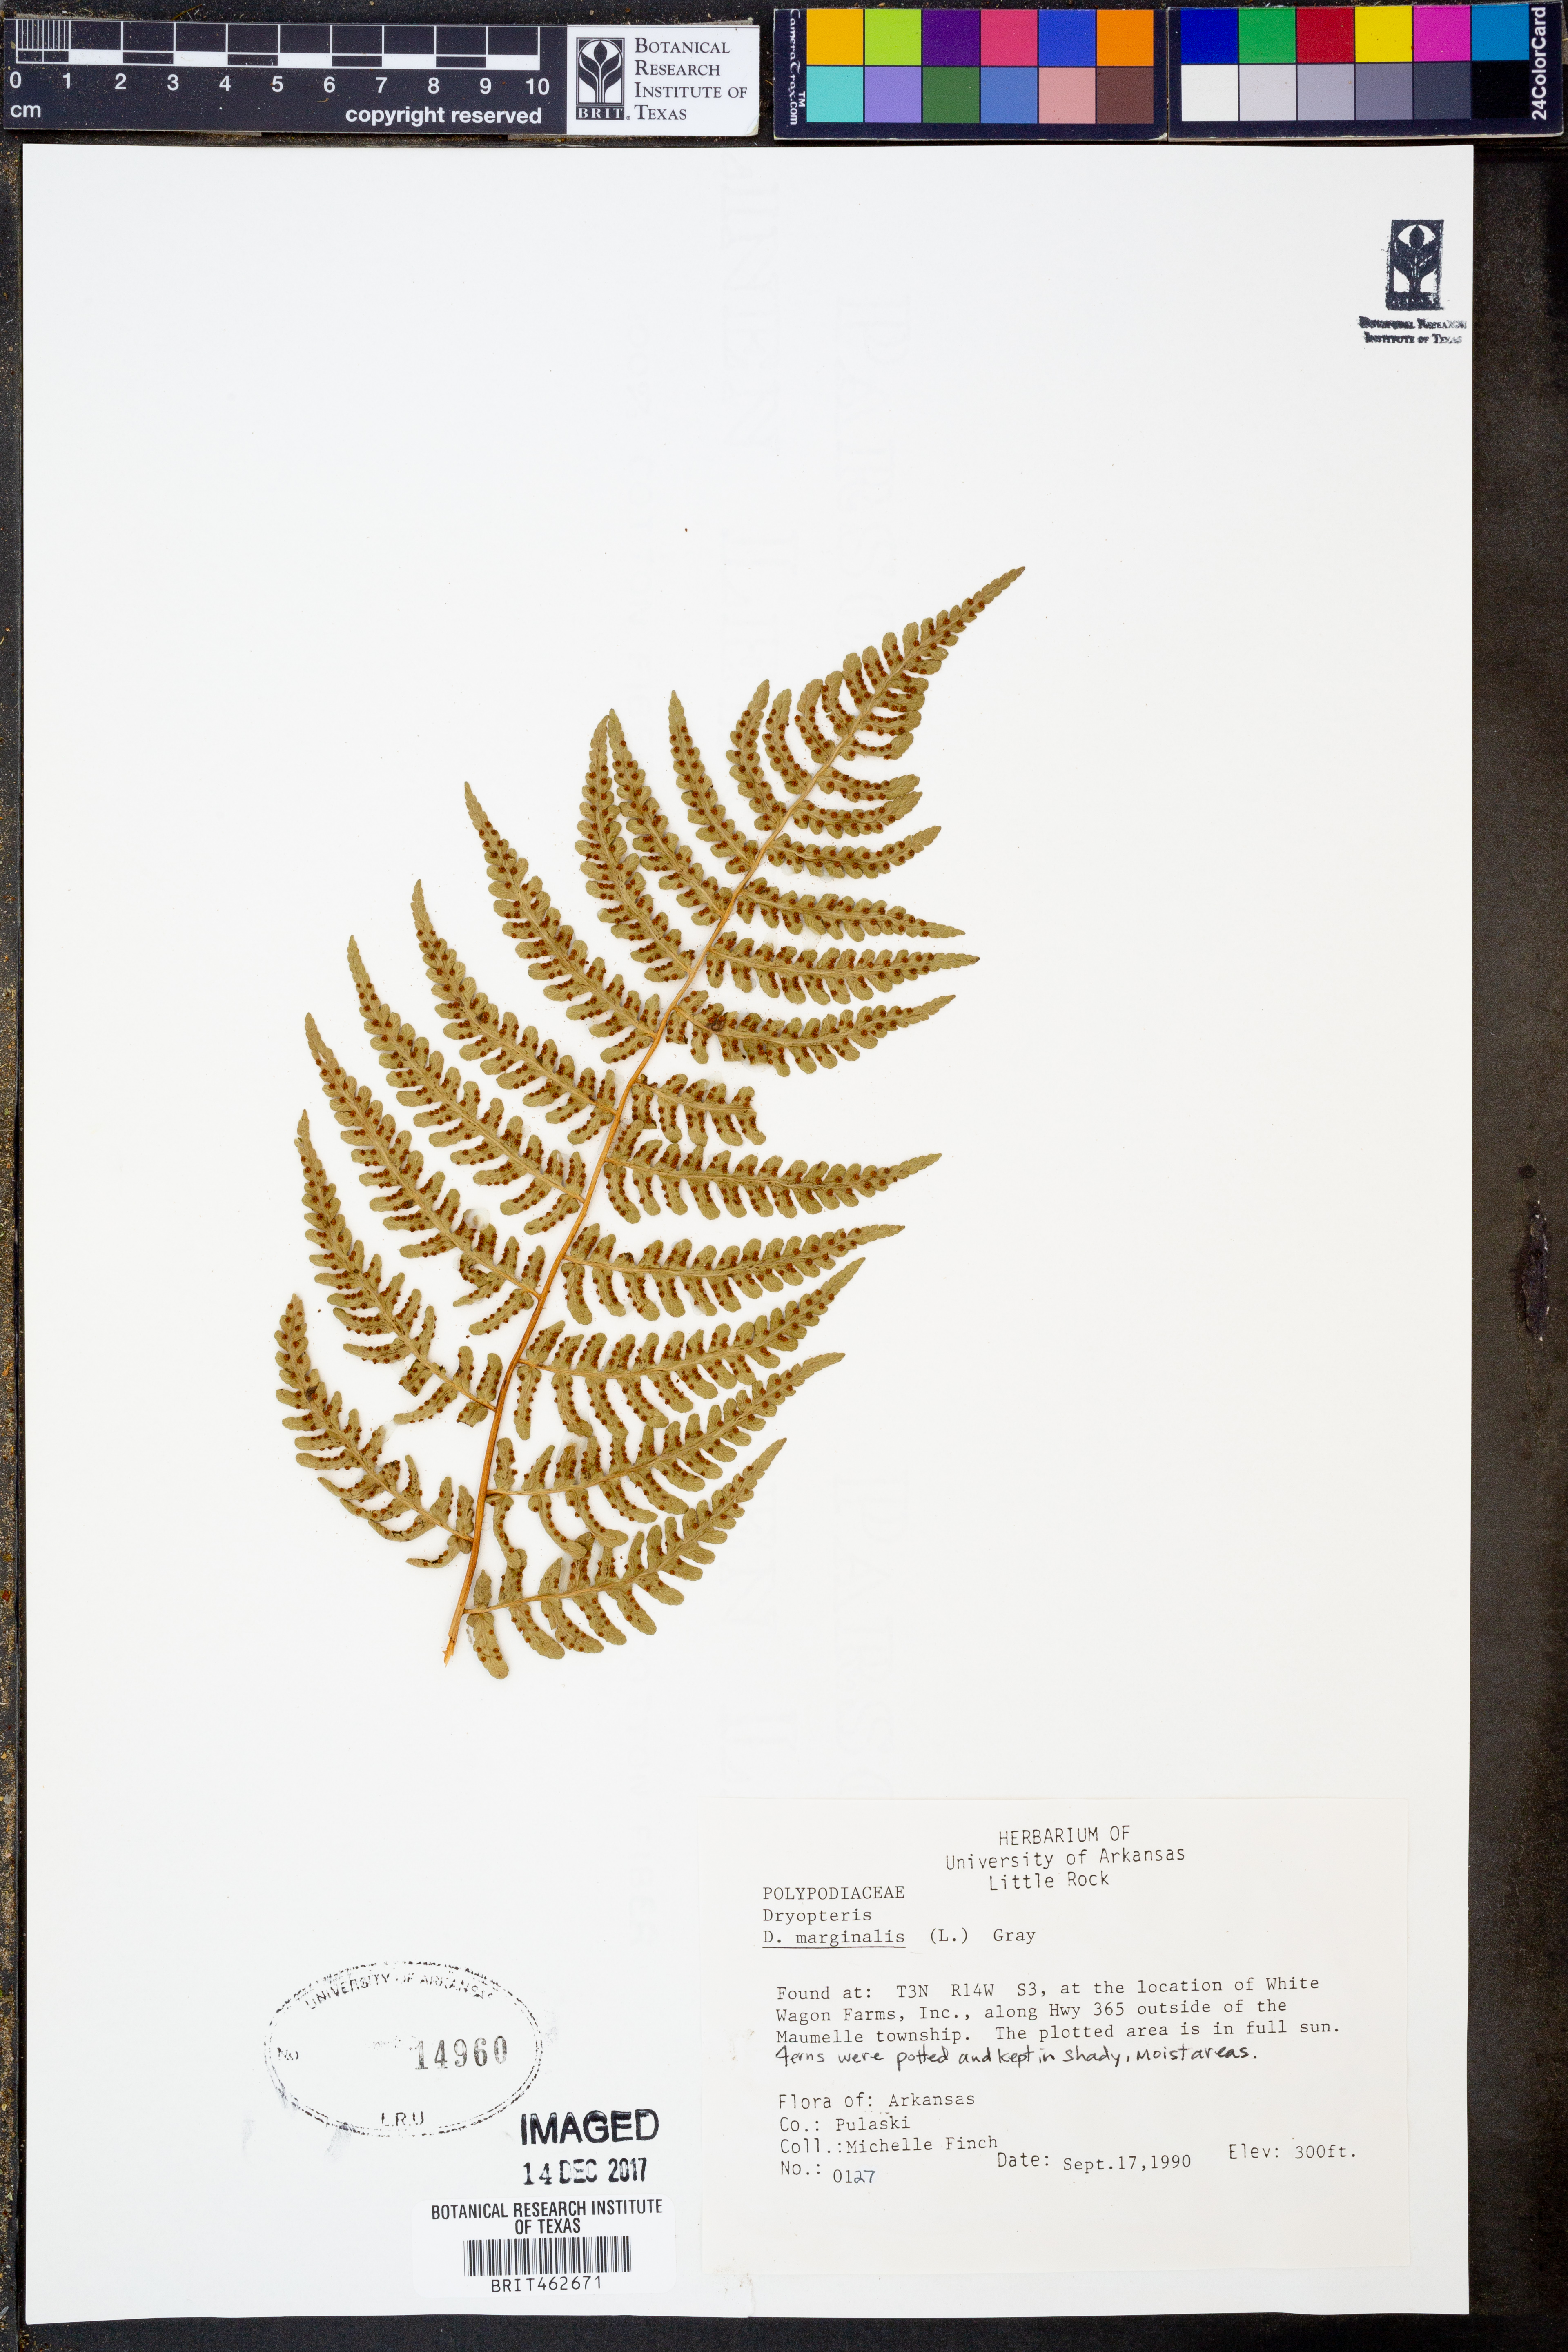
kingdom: Plantae
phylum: Tracheophyta
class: Polypodiopsida
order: Polypodiales
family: Dryopteridaceae
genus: Dryopteris
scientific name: Dryopteris marginalis
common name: Marginal wood fern
